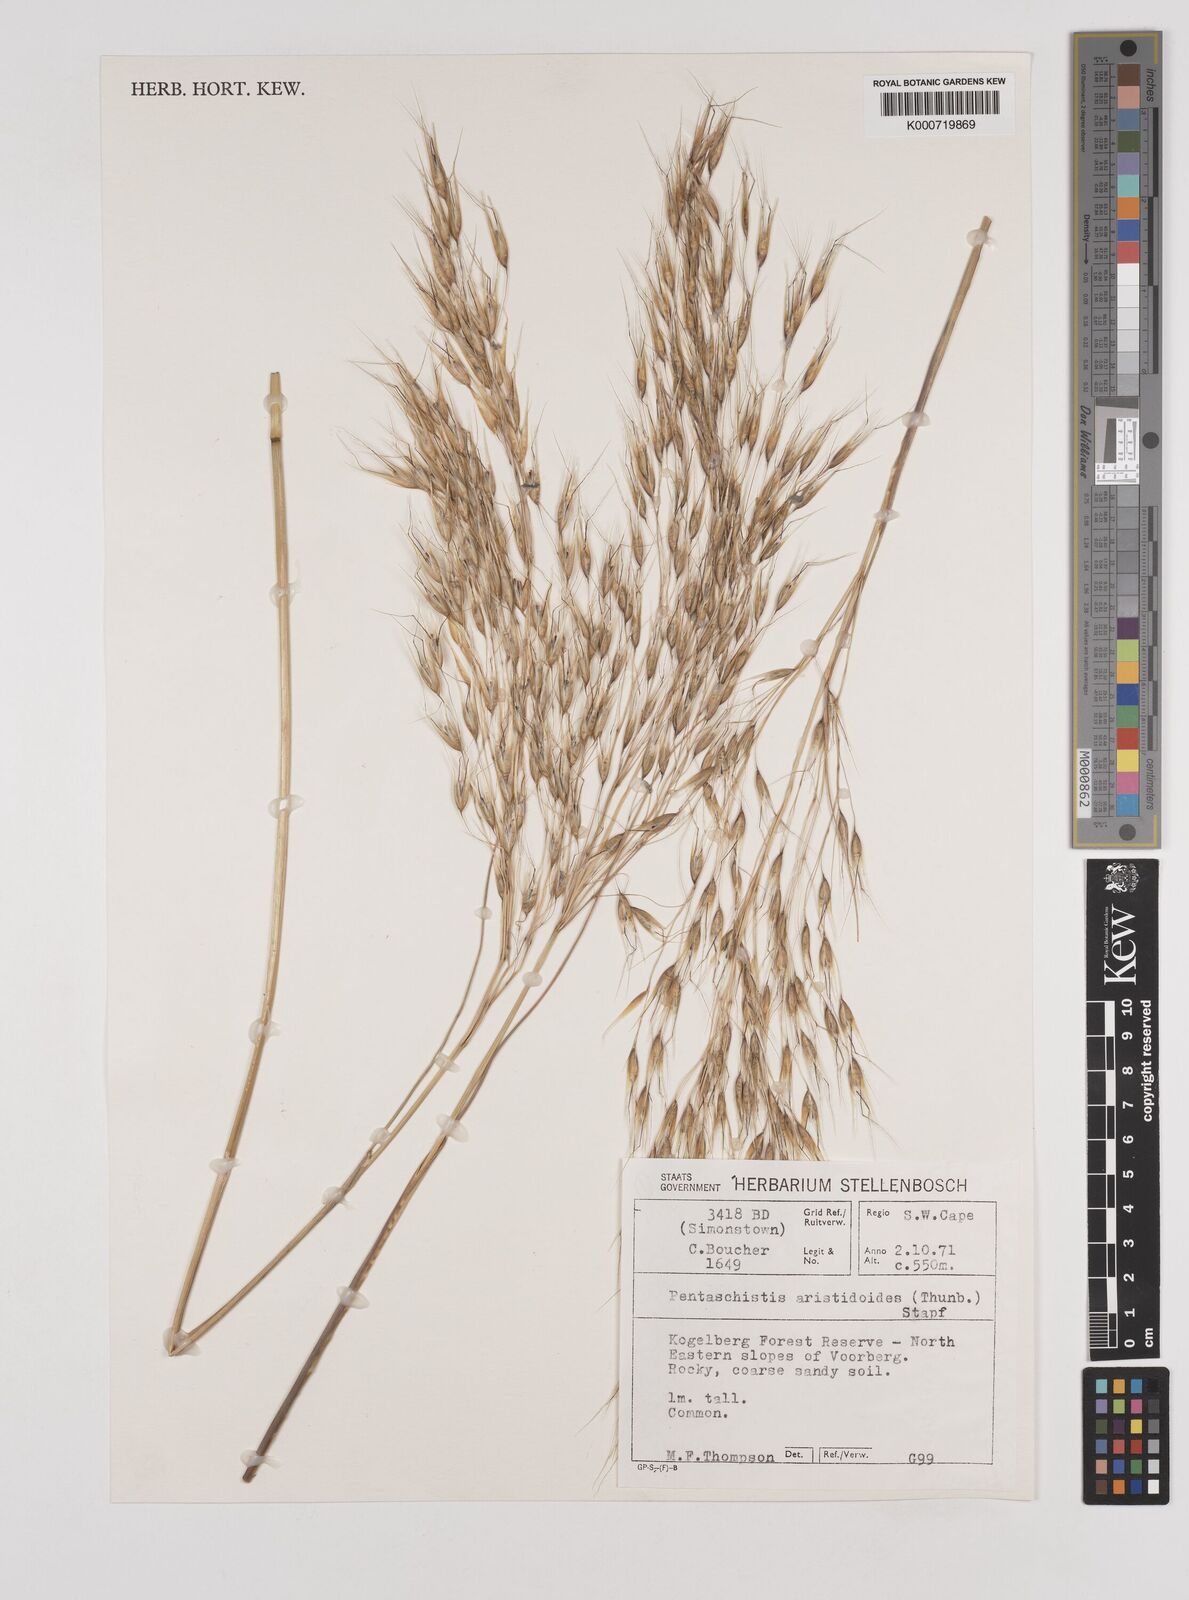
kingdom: Plantae
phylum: Tracheophyta
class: Liliopsida
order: Poales
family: Poaceae
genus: Pentameris
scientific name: Pentameris thuarii
